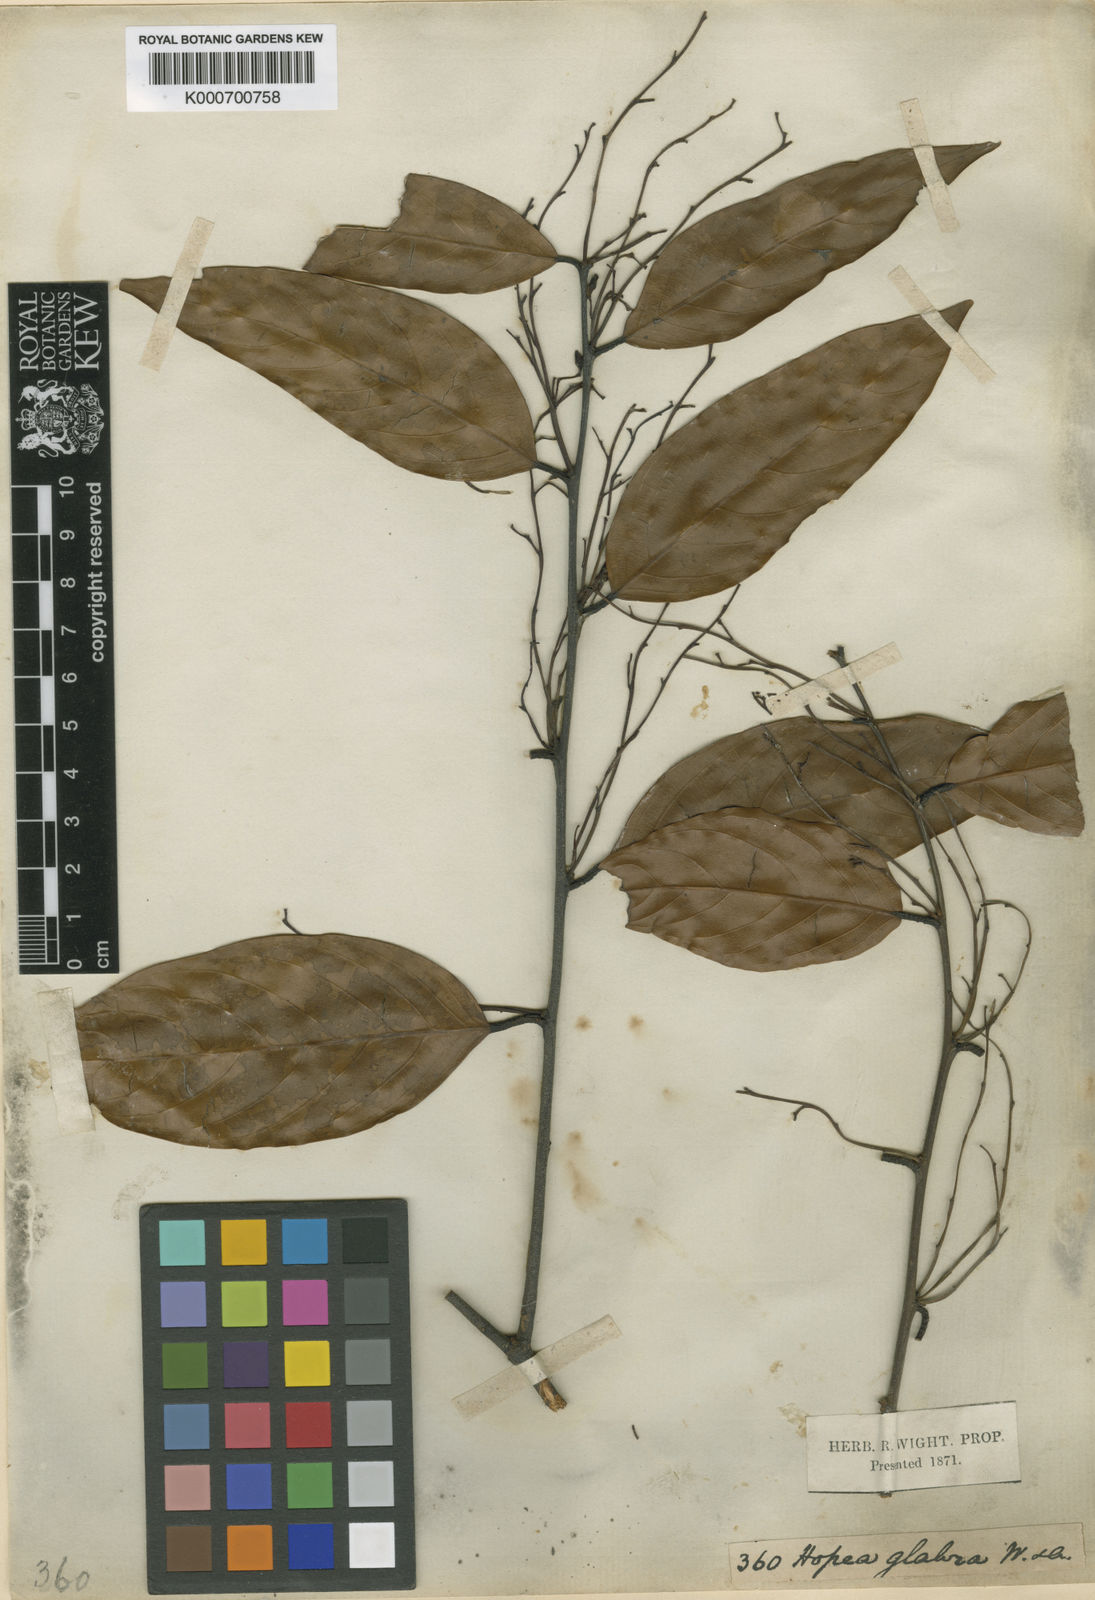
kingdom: Plantae
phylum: Tracheophyta
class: Magnoliopsida
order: Malvales
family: Dipterocarpaceae
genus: Hopea
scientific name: Hopea glabra
